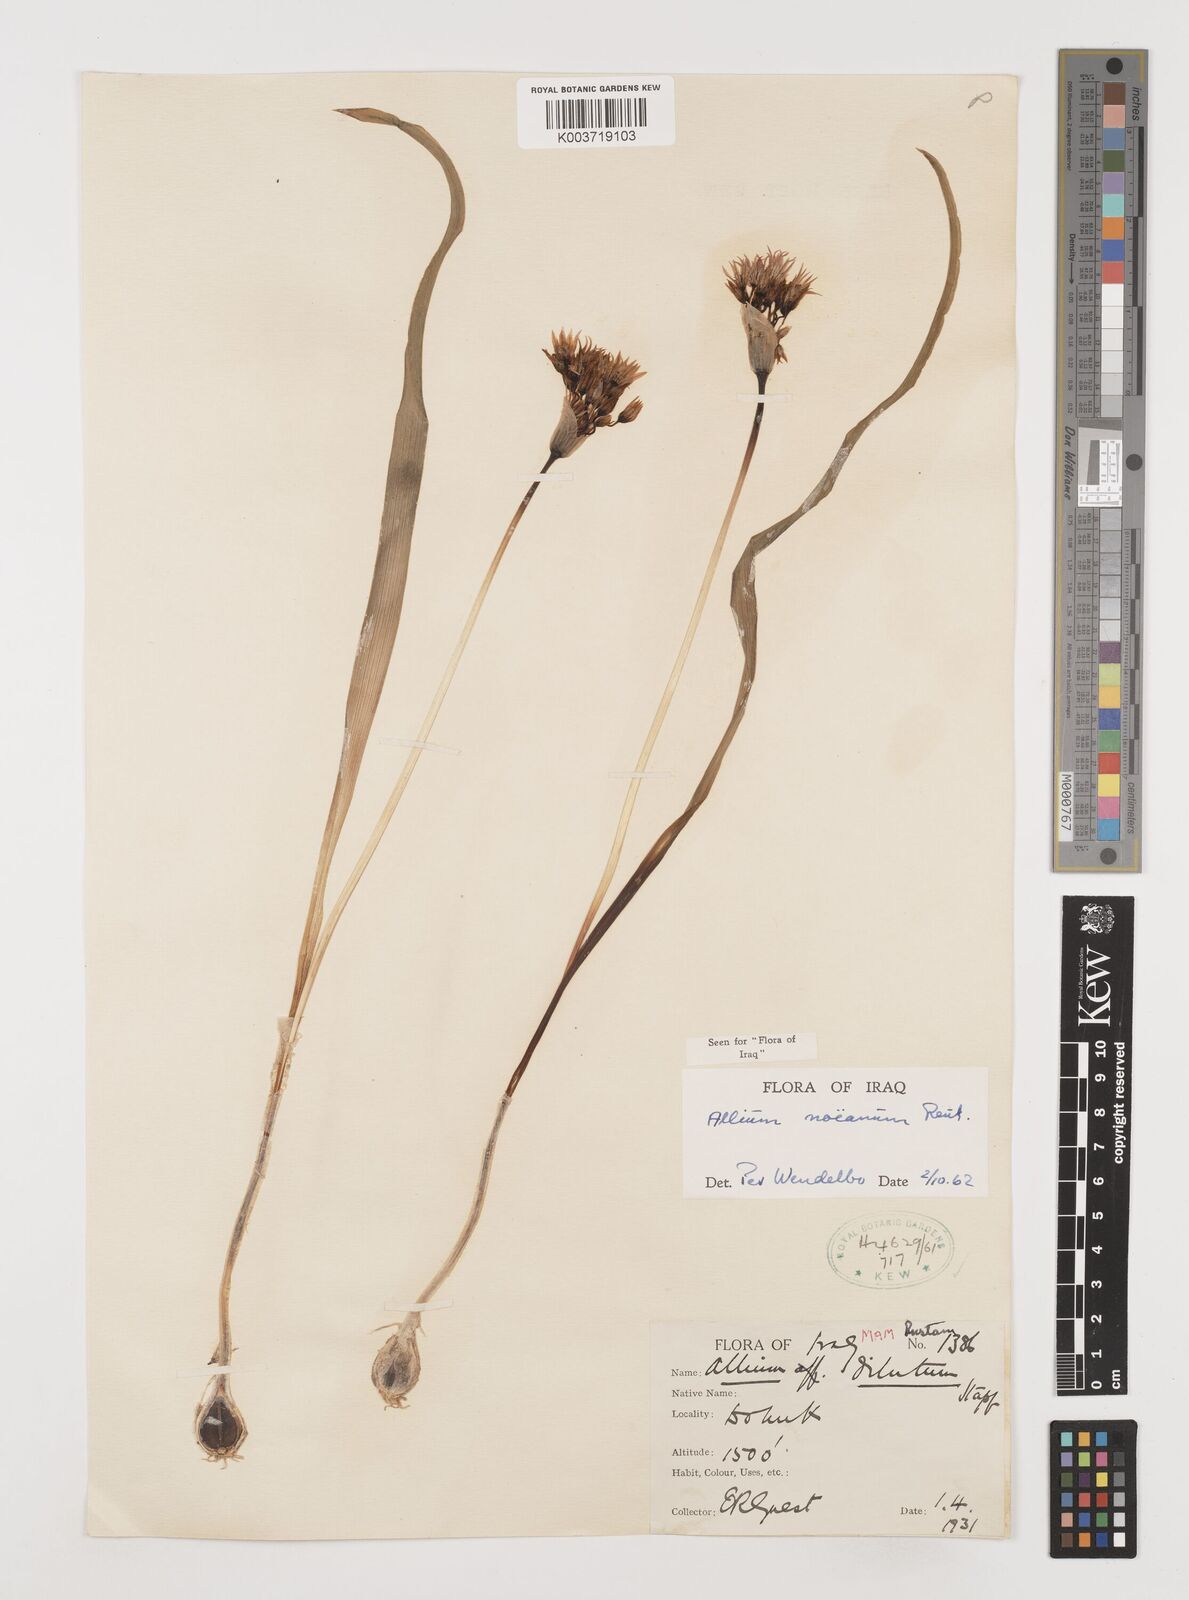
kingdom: Plantae
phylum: Tracheophyta
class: Liliopsida
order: Asparagales
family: Amaryllidaceae
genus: Allium
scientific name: Allium noeanum
